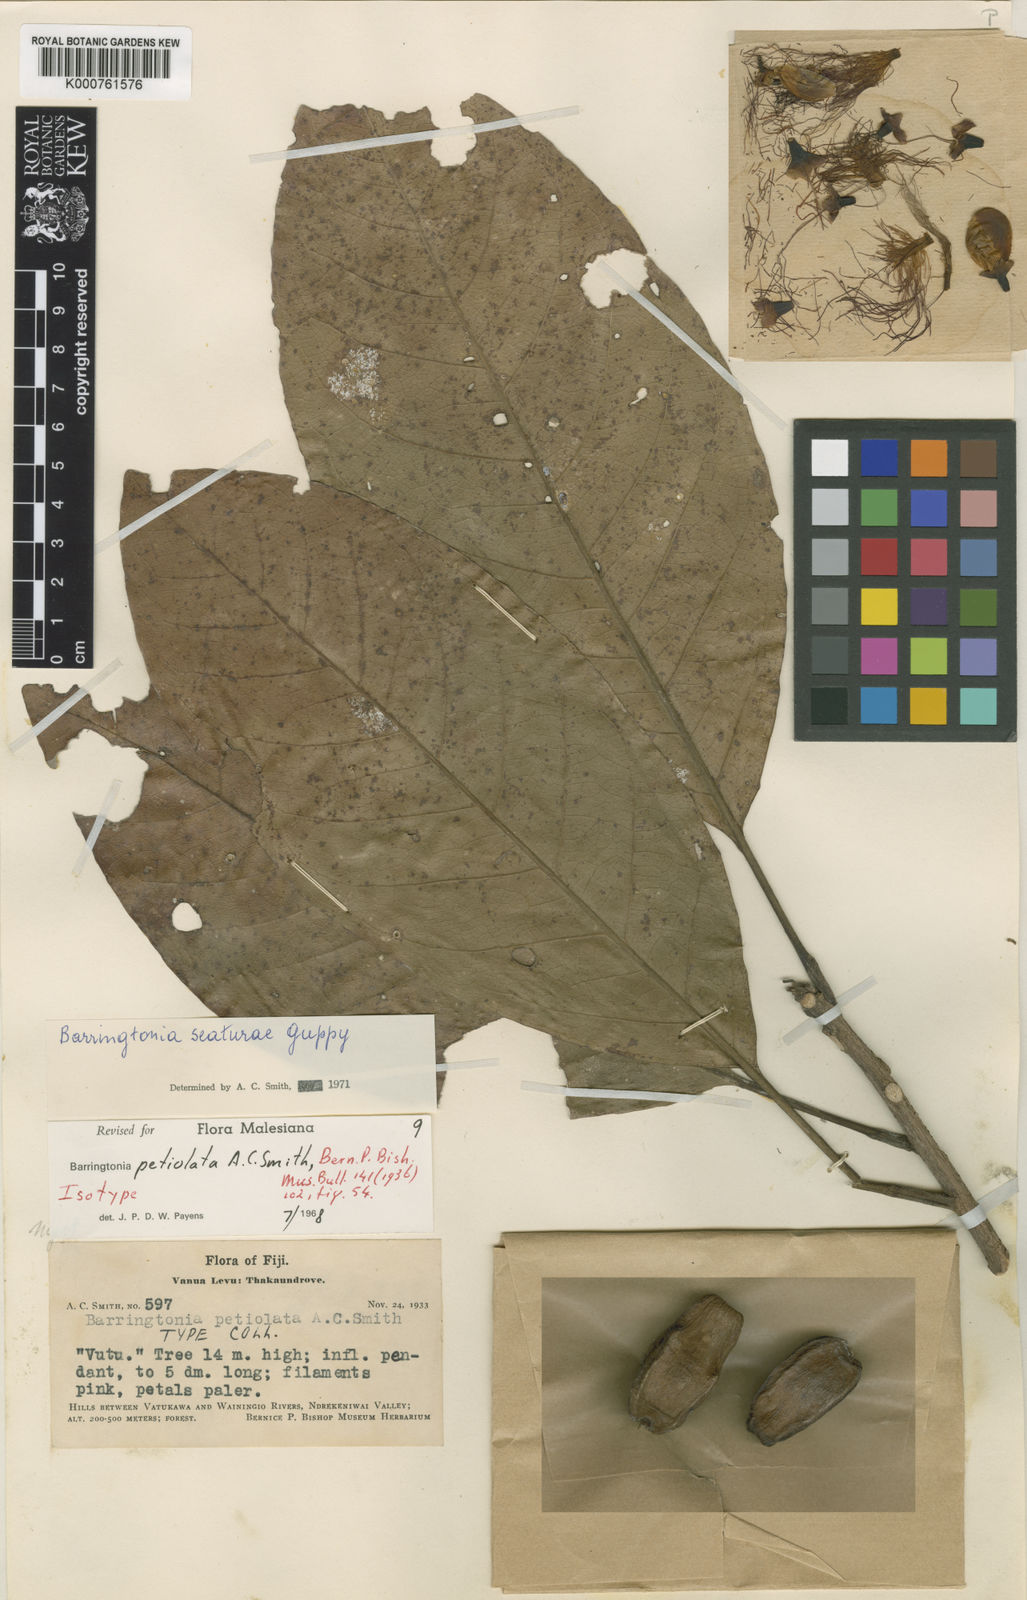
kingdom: Plantae
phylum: Tracheophyta
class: Magnoliopsida
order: Ericales
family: Lecythidaceae
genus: Barringtonia
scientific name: Barringtonia seaturae
